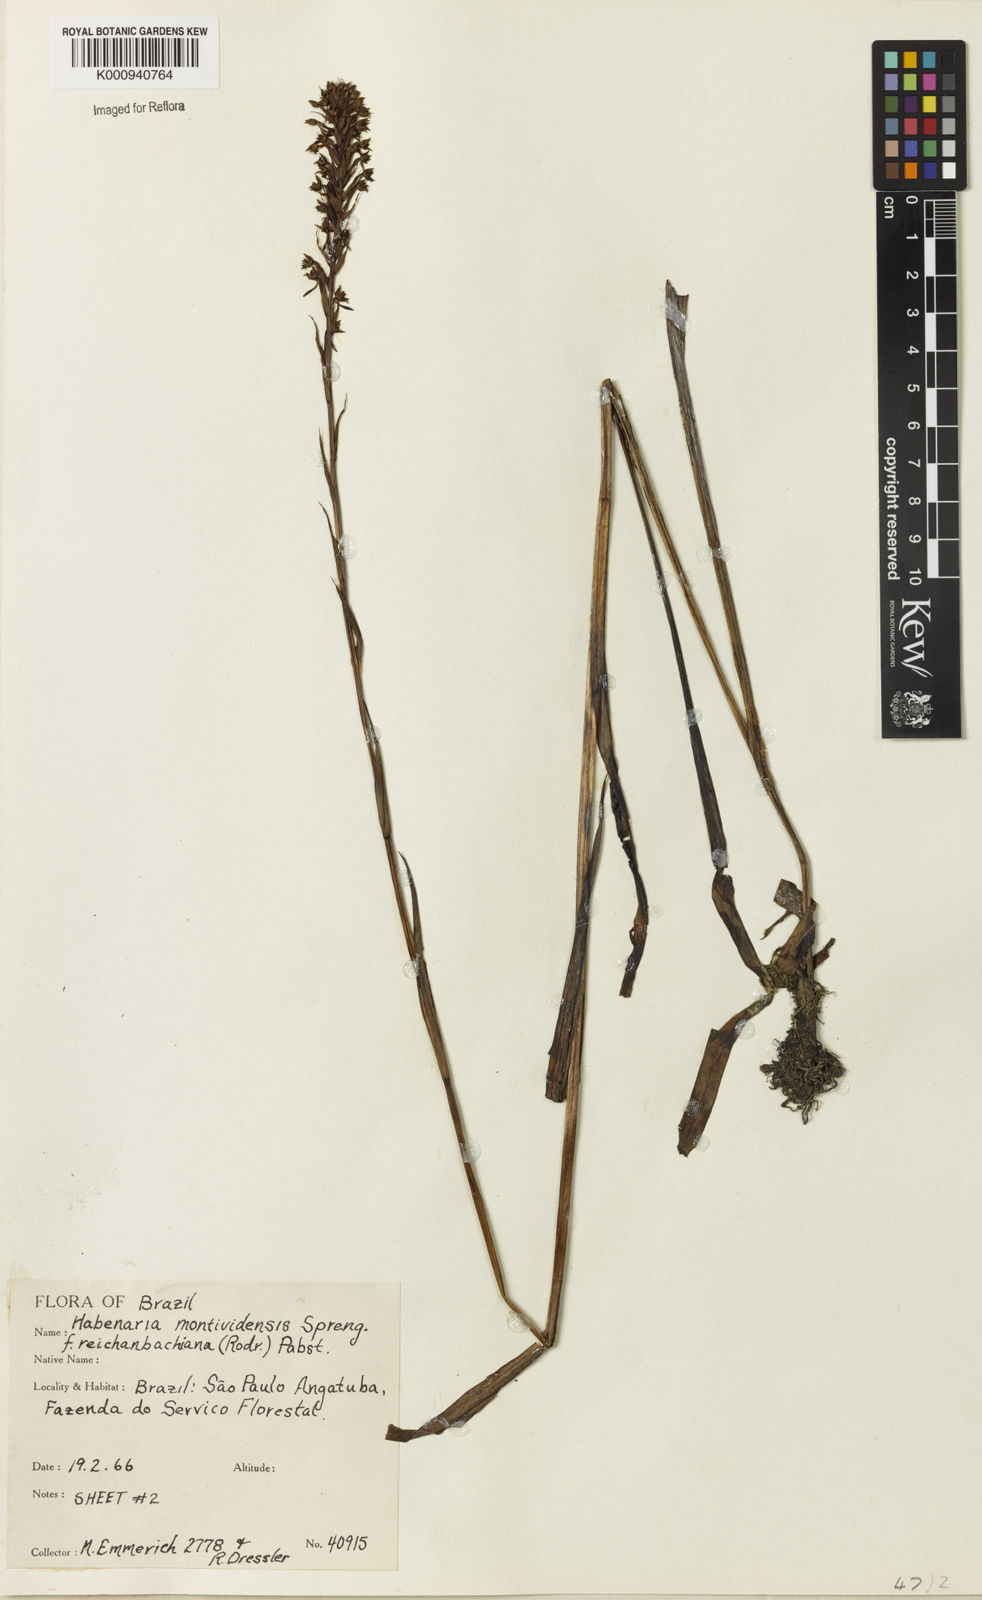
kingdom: Plantae
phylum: Tracheophyta
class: Liliopsida
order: Asparagales
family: Orchidaceae
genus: Habenaria
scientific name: Habenaria parviflora
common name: Small flowered habenaria
